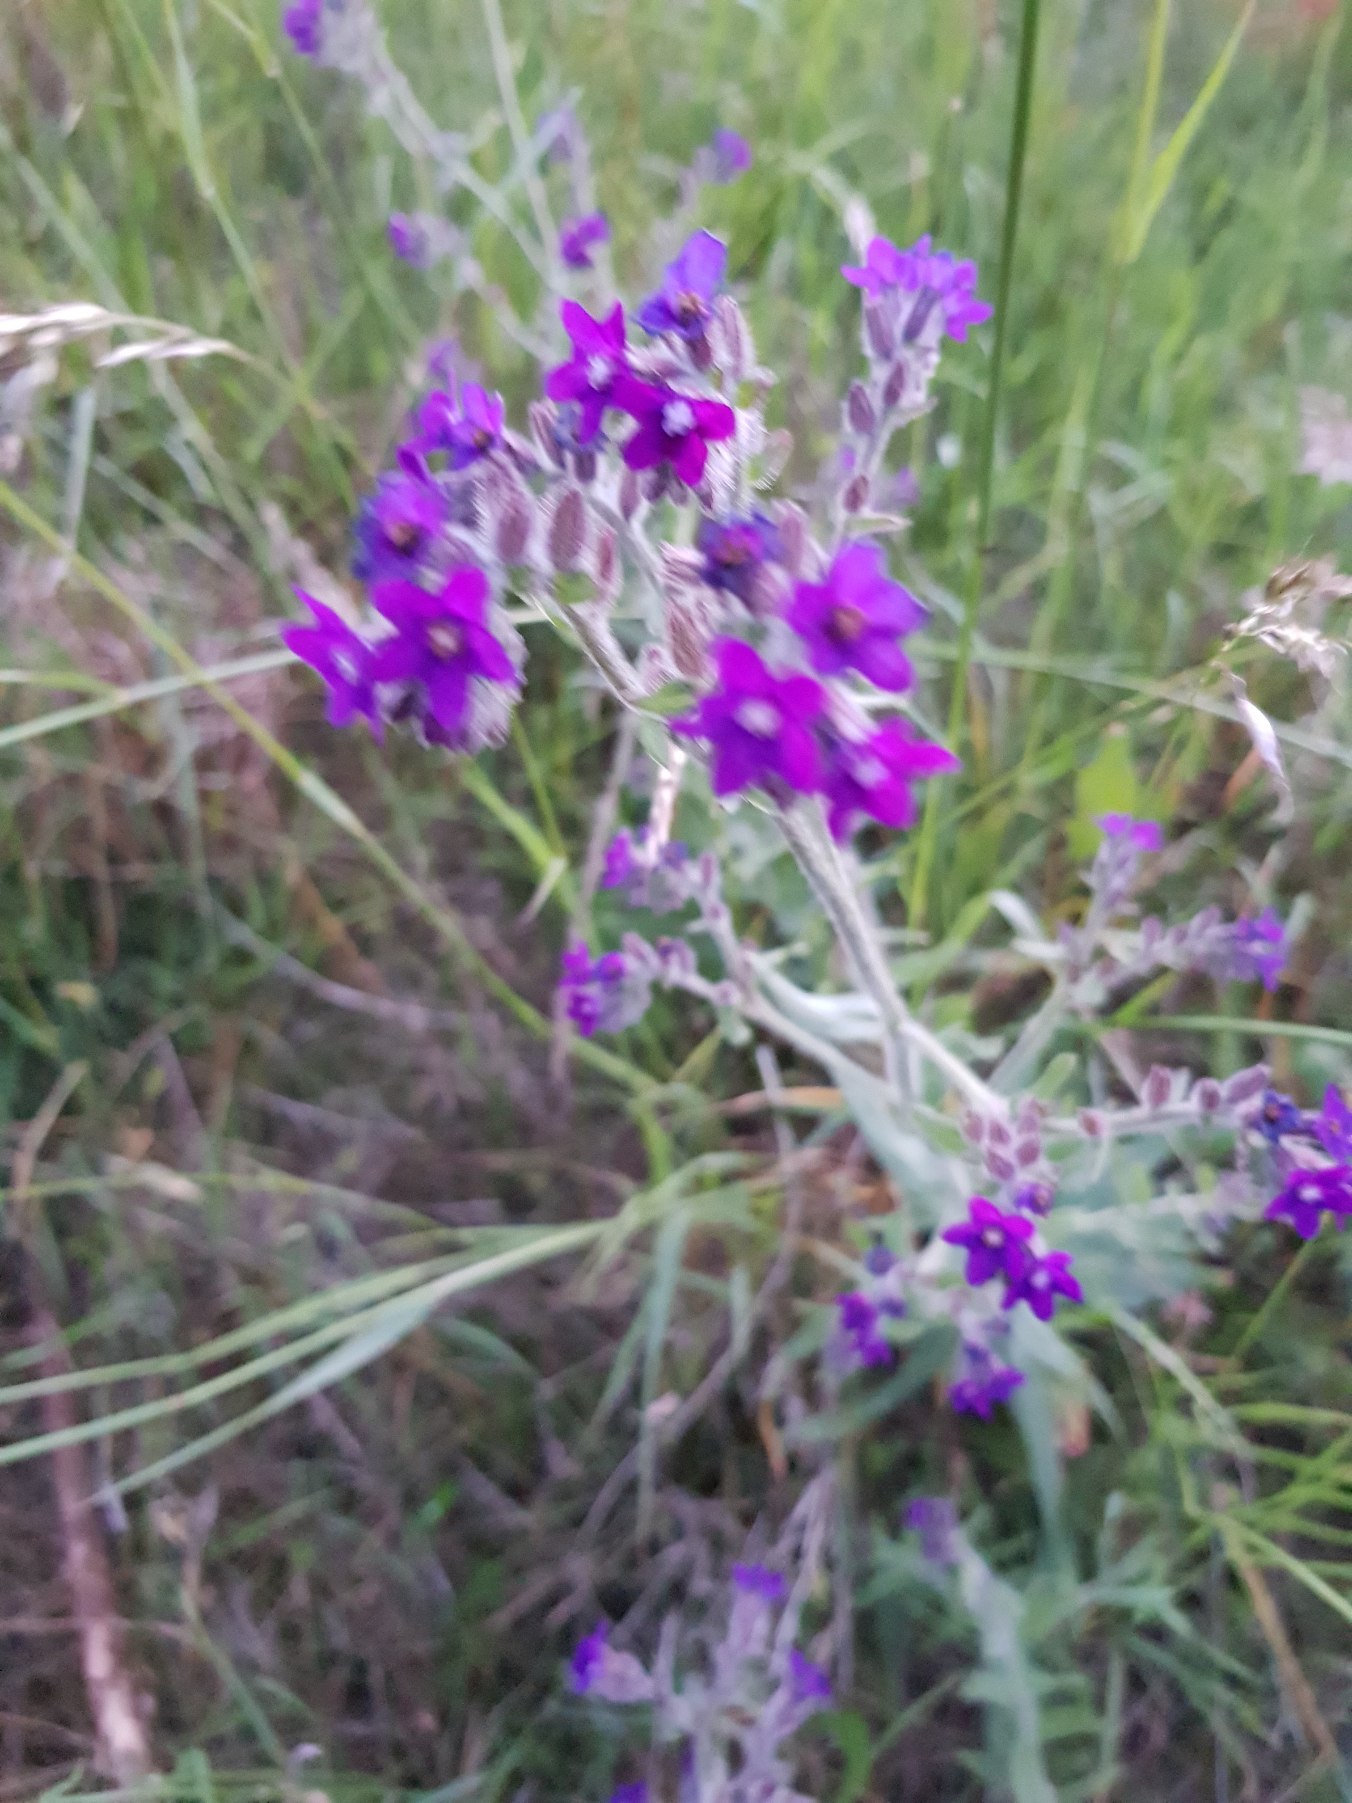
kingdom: Plantae
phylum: Tracheophyta
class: Magnoliopsida
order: Boraginales
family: Boraginaceae
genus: Anchusa
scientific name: Anchusa officinalis
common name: Læge-oksetunge
